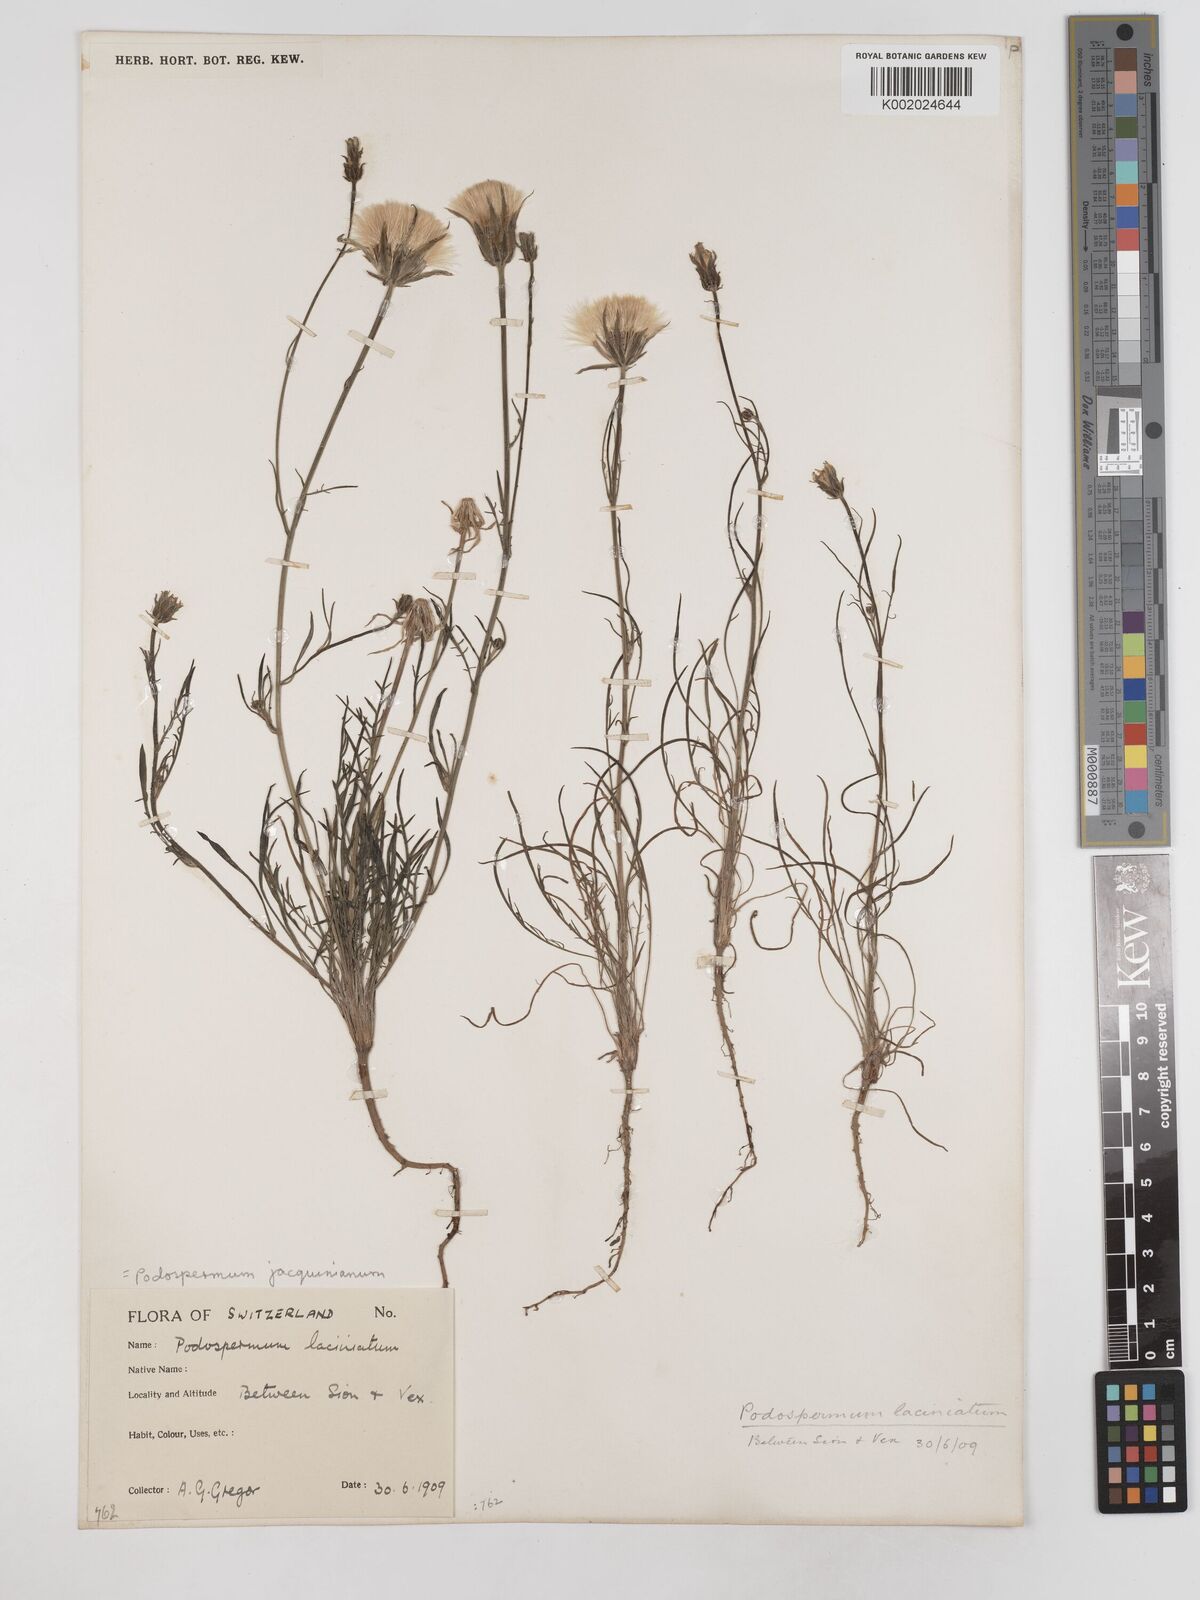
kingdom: Plantae
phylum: Tracheophyta
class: Magnoliopsida
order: Asterales
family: Asteraceae
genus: Scorzonera
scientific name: Scorzonera cana
